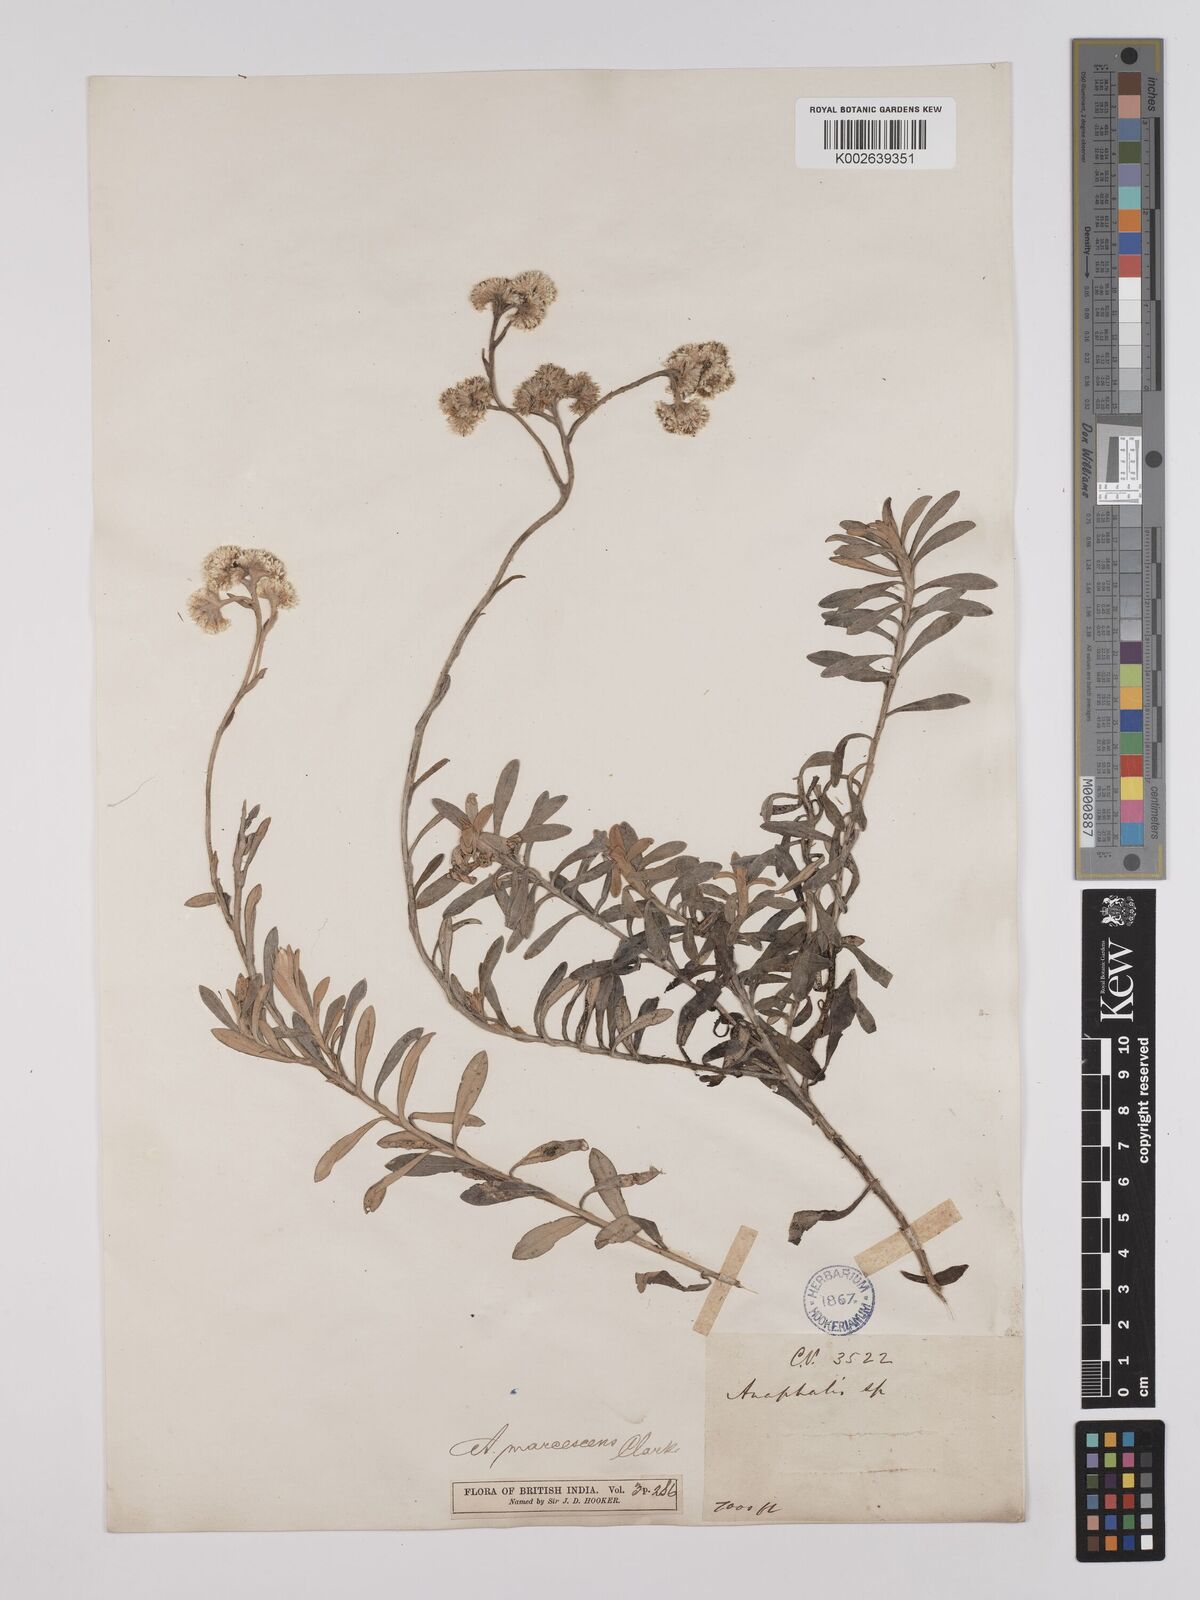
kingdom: Plantae
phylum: Tracheophyta
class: Magnoliopsida
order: Asterales
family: Asteraceae
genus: Anaphalis
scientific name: Anaphalis marcescens
